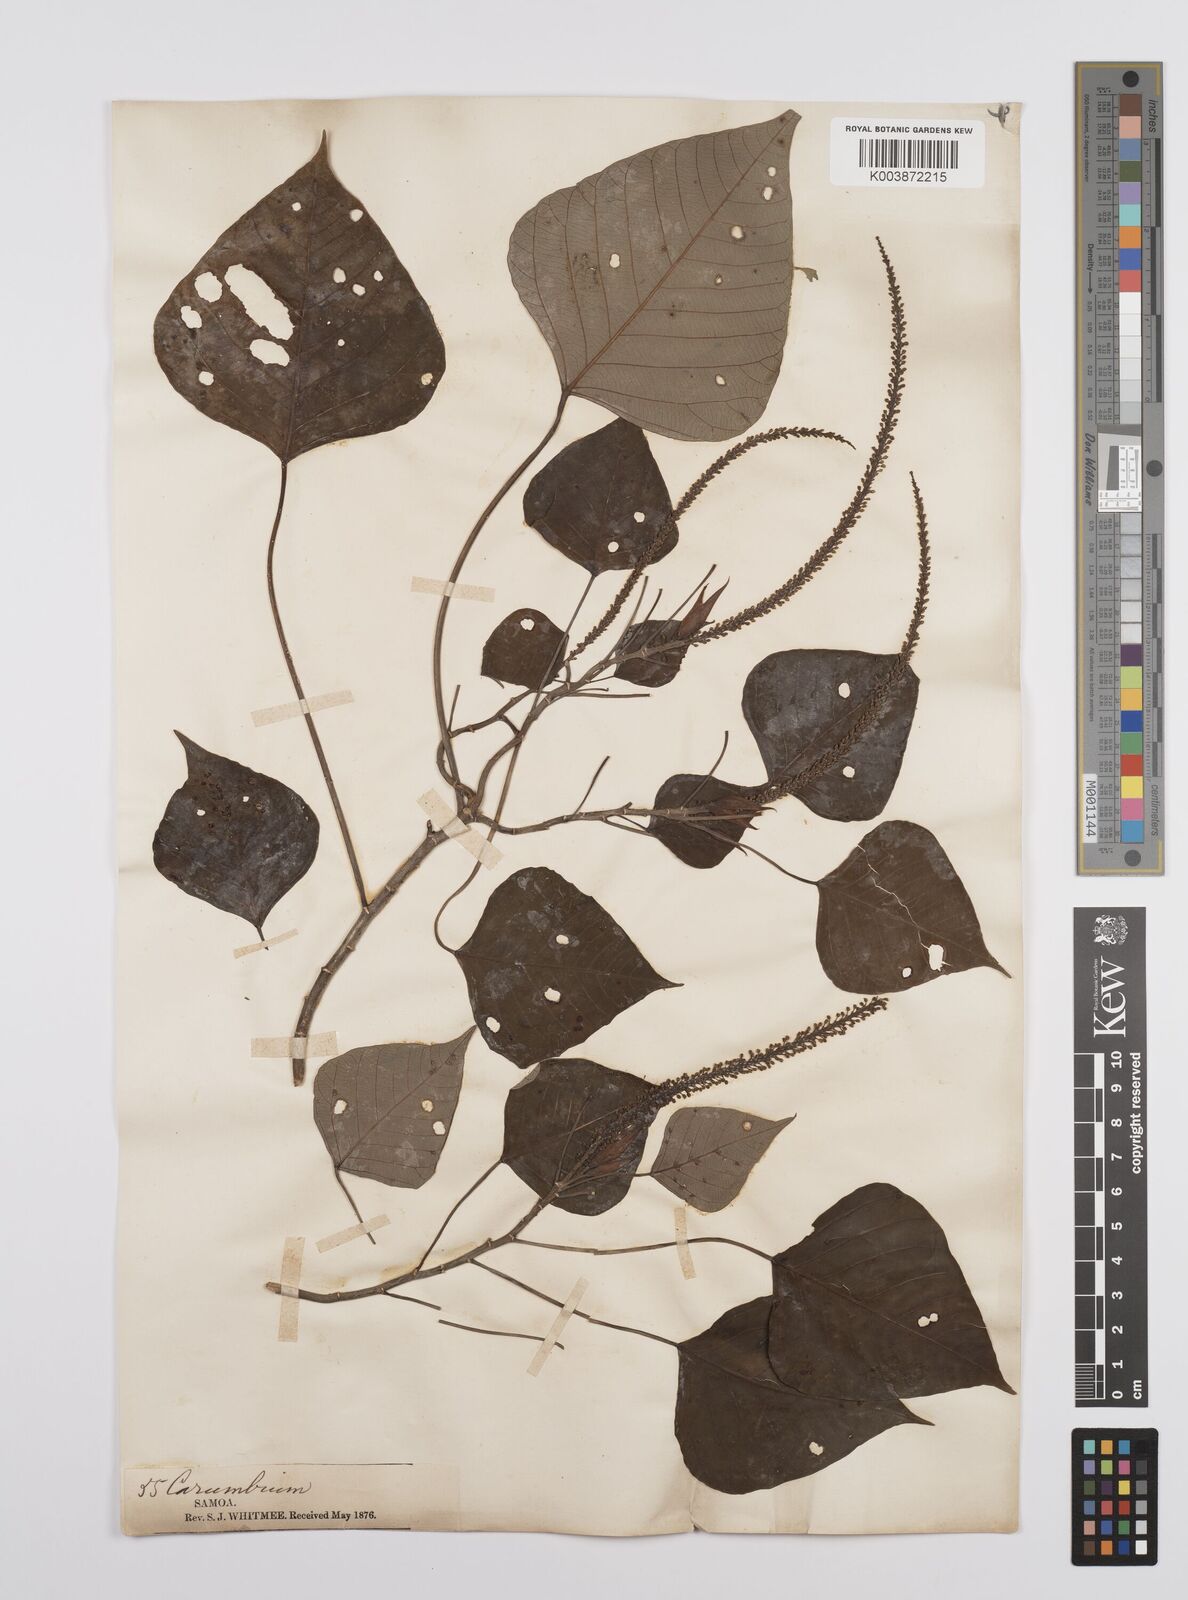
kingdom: Plantae
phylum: Tracheophyta
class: Magnoliopsida
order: Malpighiales
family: Euphorbiaceae
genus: Homalanthus
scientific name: Homalanthus acuminatus
